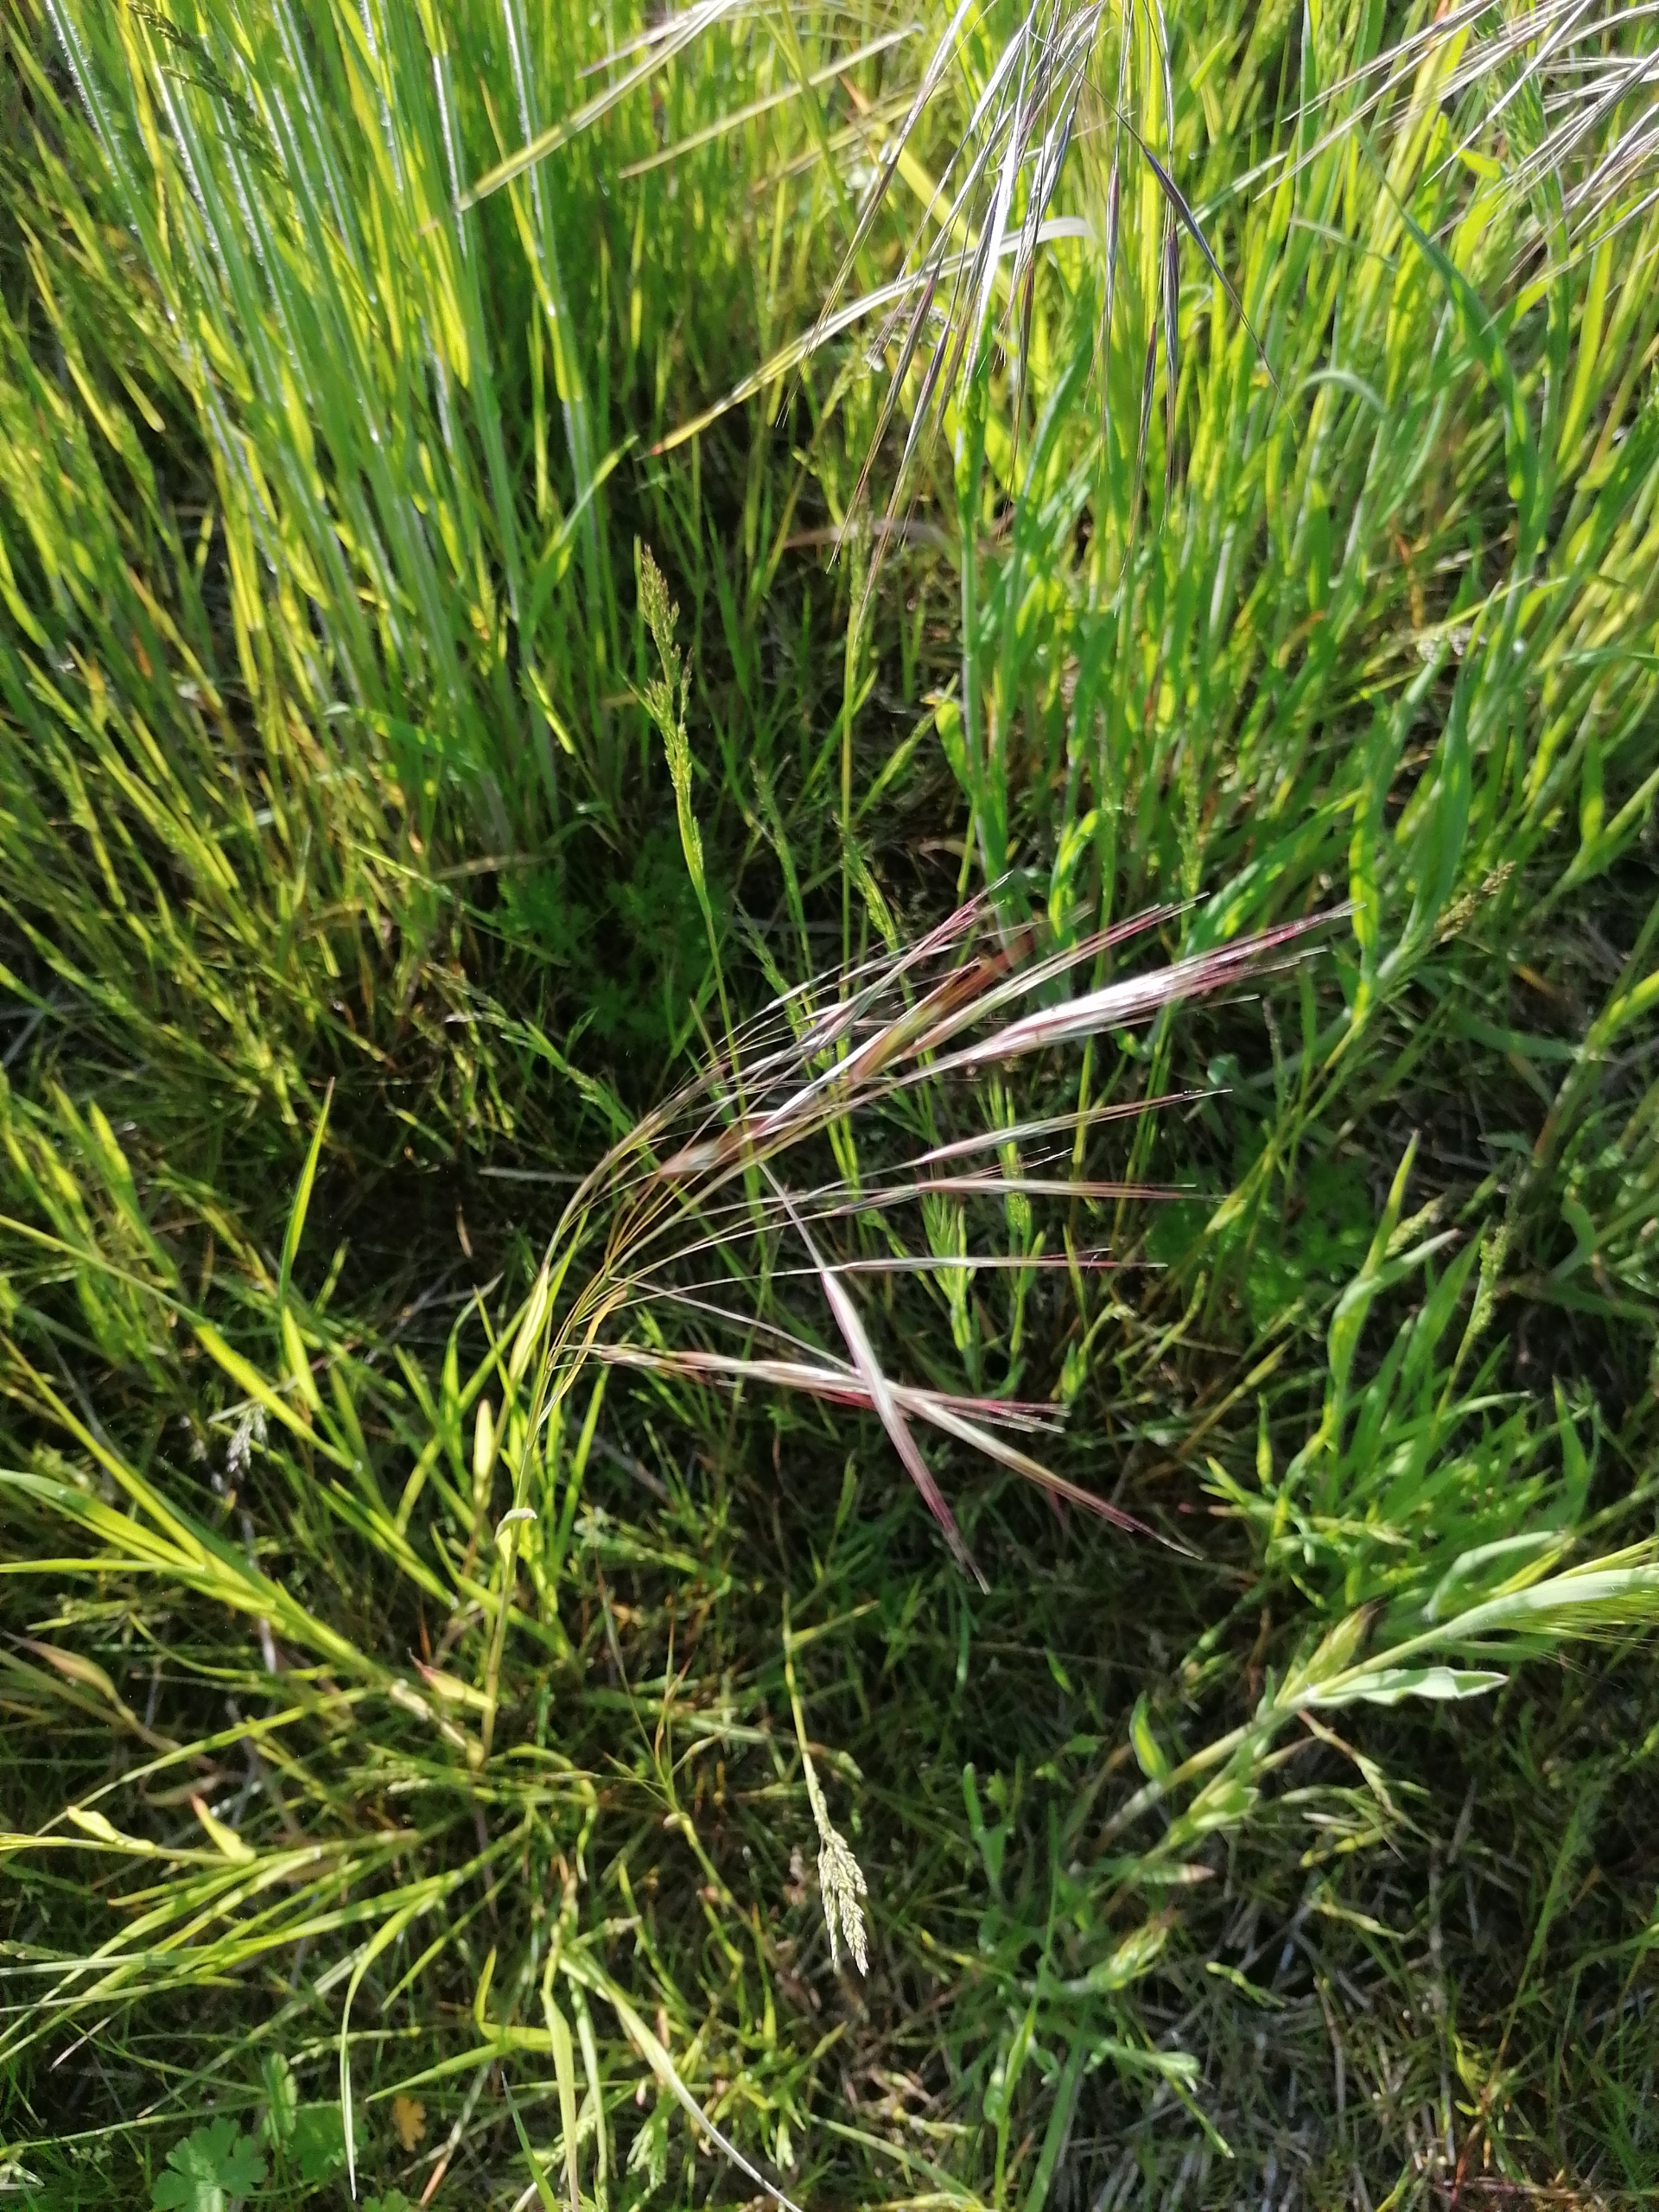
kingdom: Plantae
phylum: Tracheophyta
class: Liliopsida
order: Poales
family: Poaceae
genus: Bromus
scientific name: Bromus sterilis
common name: Gold hejre
